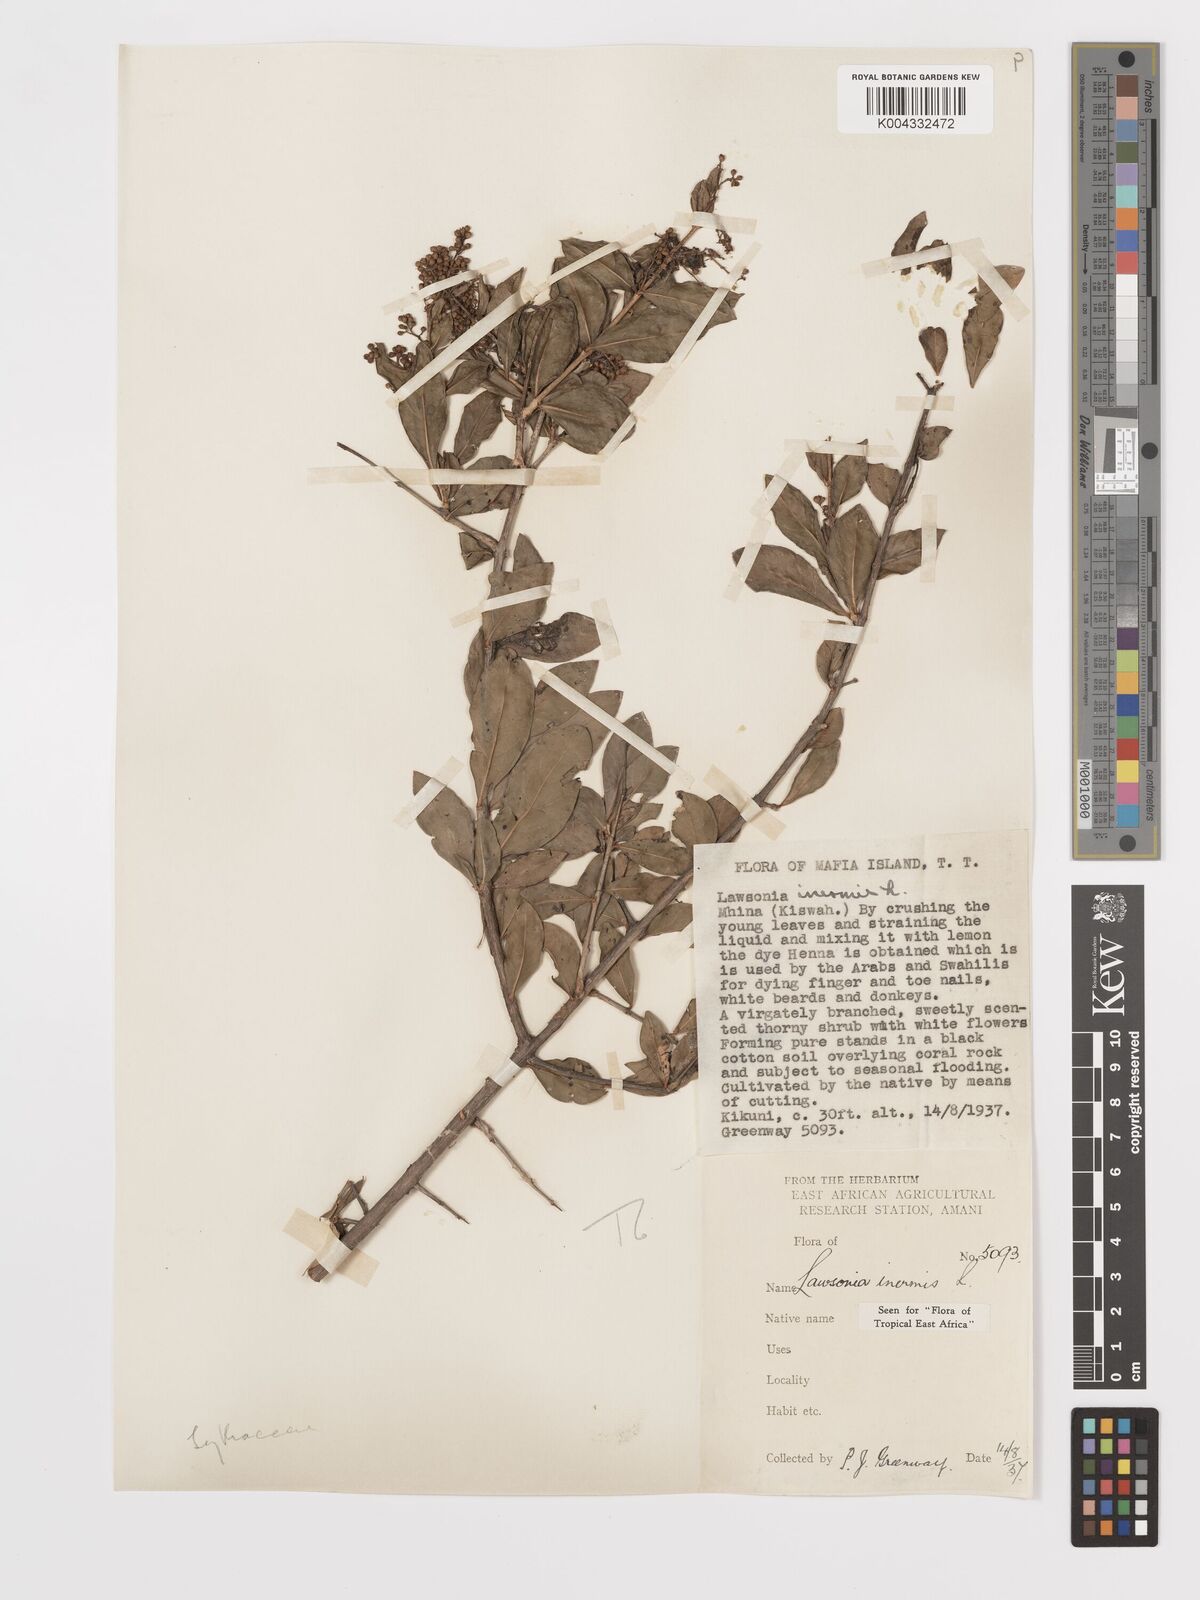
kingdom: Plantae
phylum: Tracheophyta
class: Magnoliopsida
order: Myrtales
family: Lythraceae
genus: Lawsonia
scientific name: Lawsonia inermis
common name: Henna
